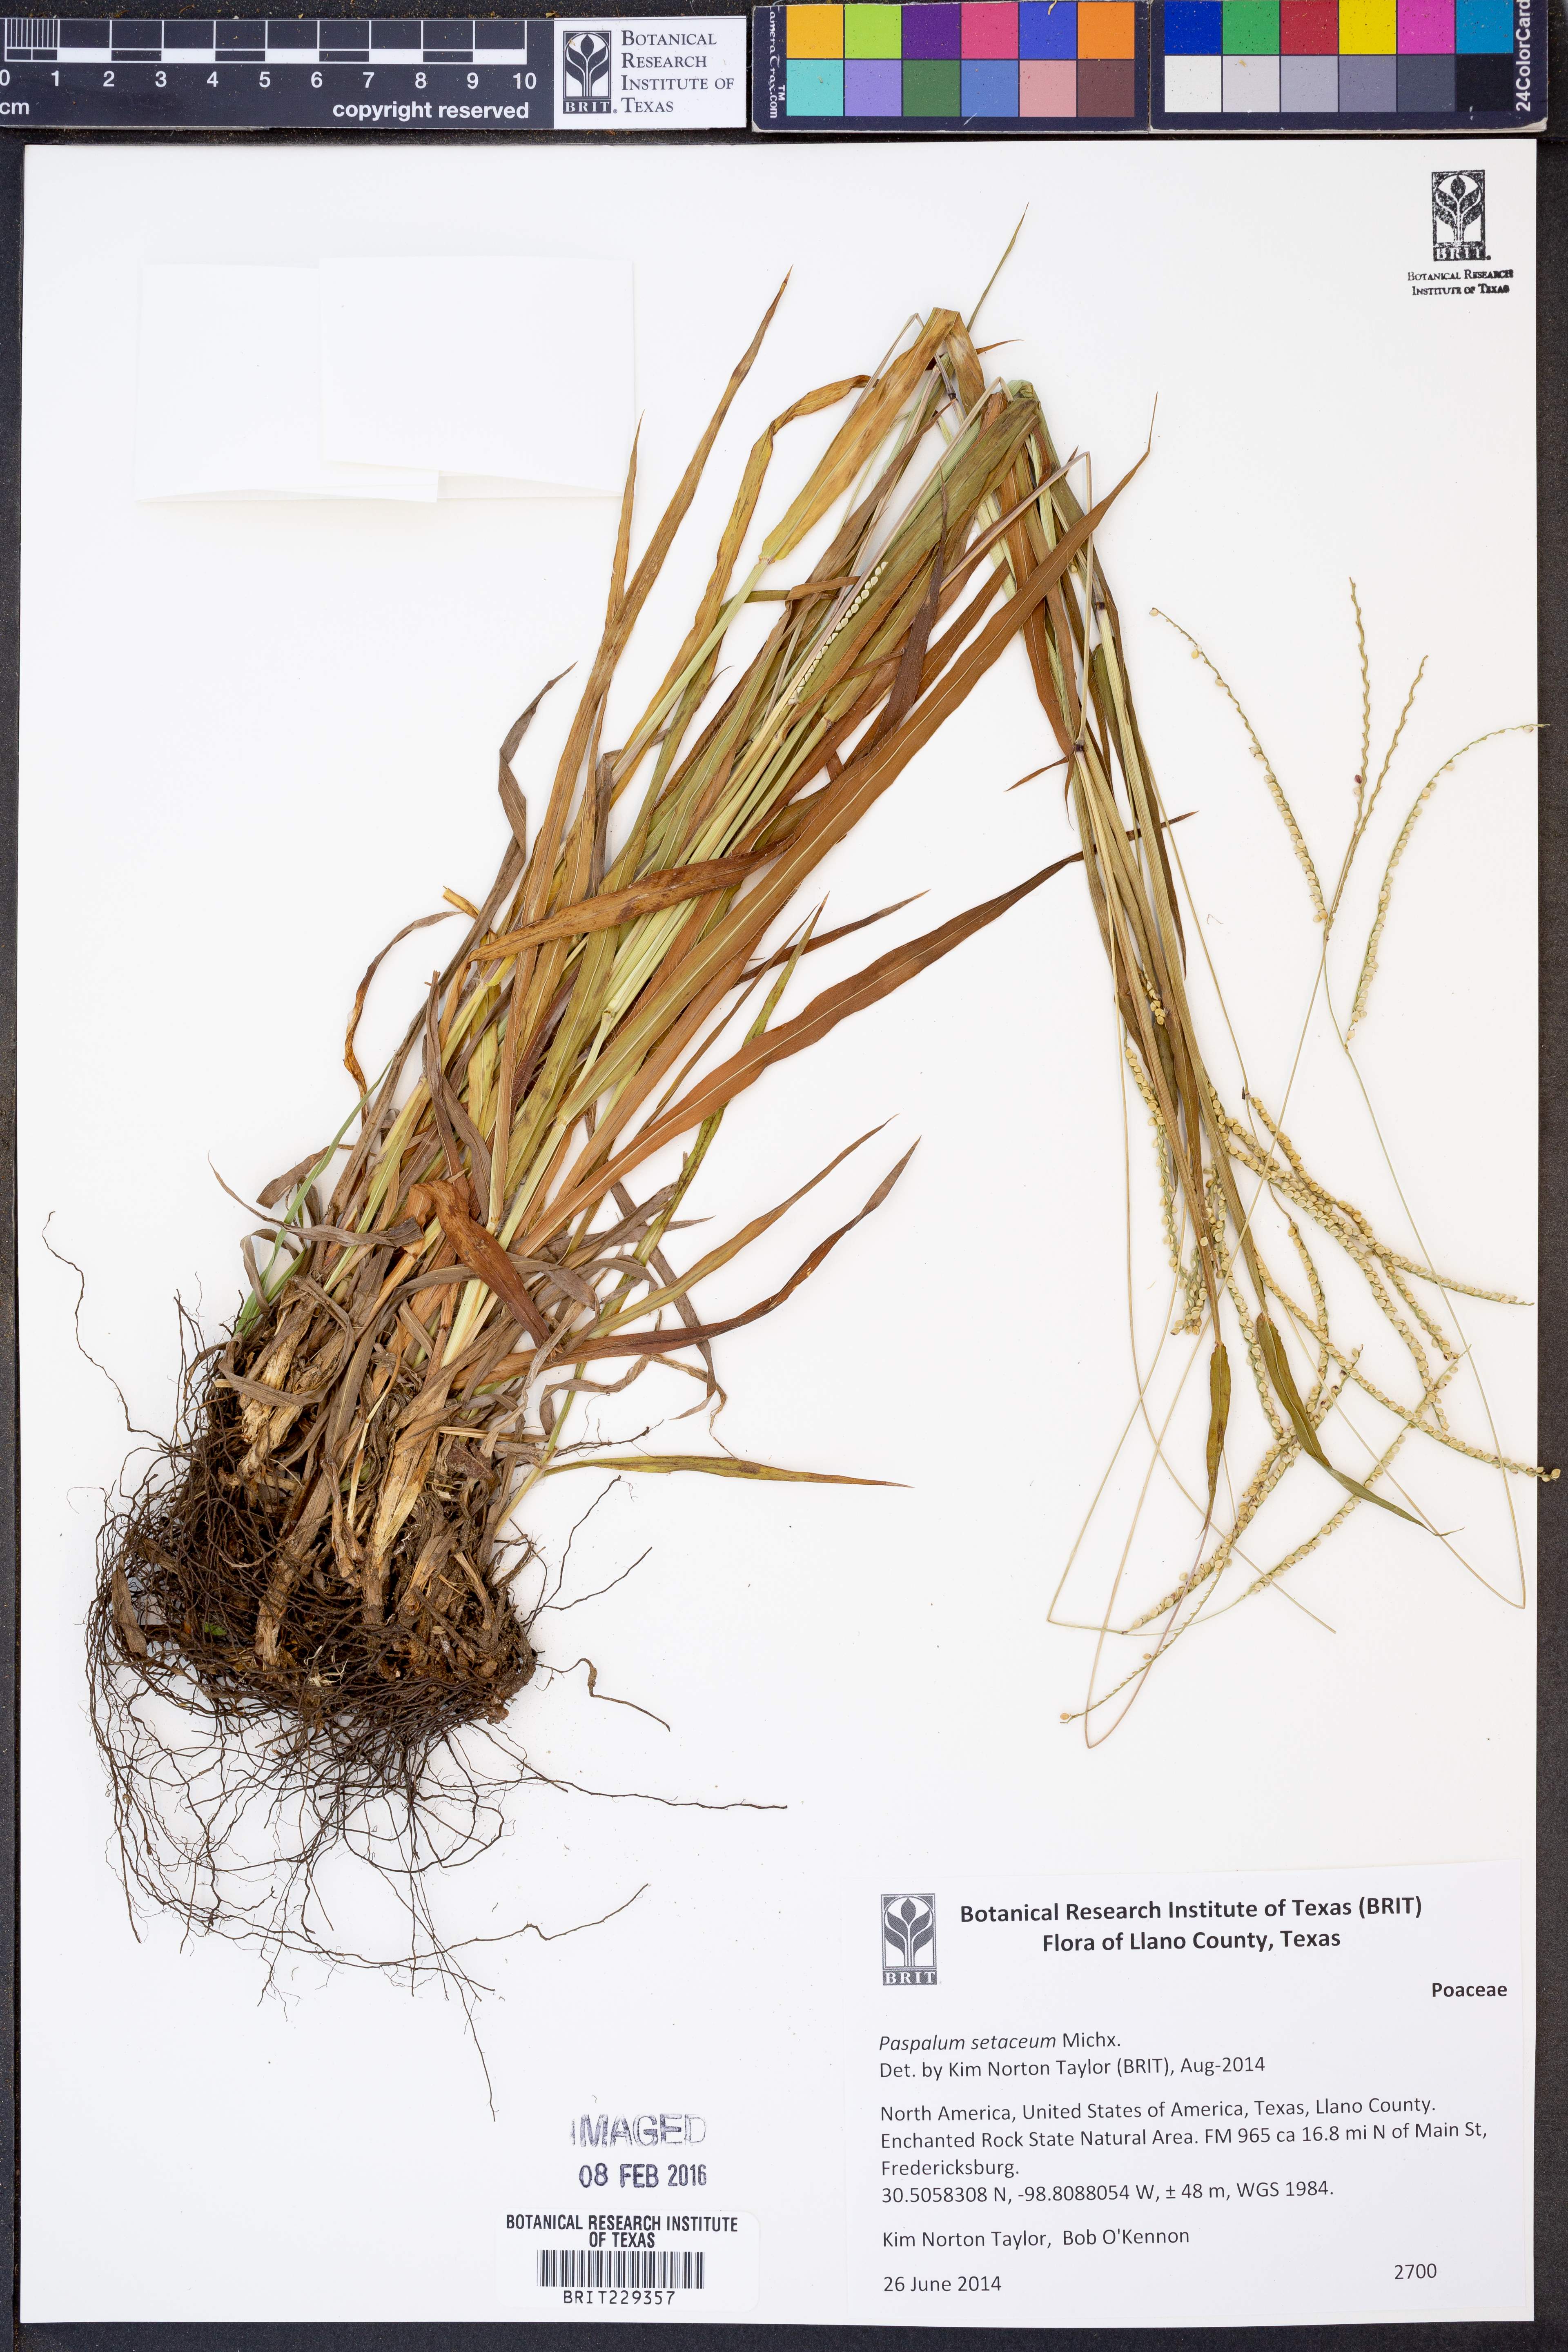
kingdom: Plantae
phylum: Tracheophyta
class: Liliopsida
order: Poales
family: Poaceae
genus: Paspalum
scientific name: Paspalum setaceum
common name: Slender paspalum
